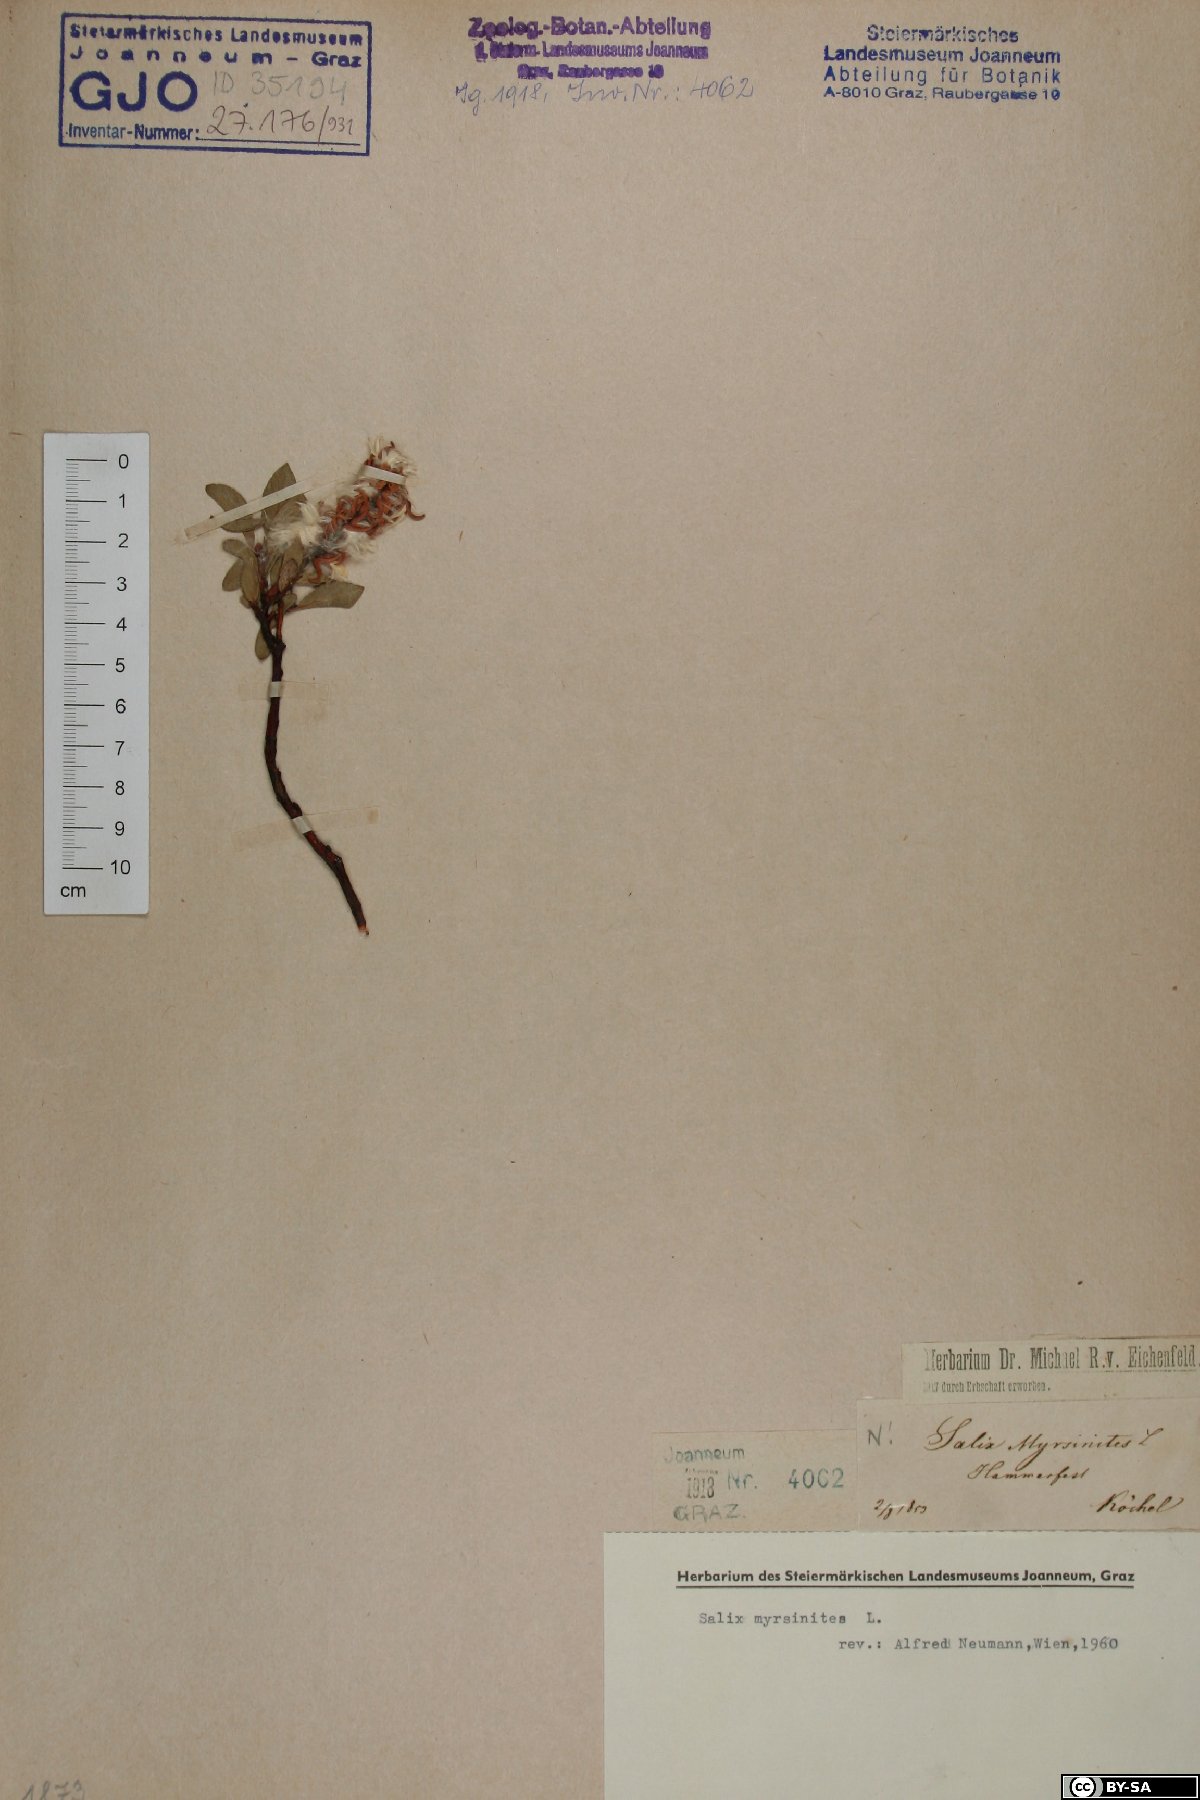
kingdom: Plantae
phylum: Tracheophyta
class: Magnoliopsida
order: Malpighiales
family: Salicaceae
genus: Salix
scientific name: Salix myrsinites
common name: Myrtle willow
